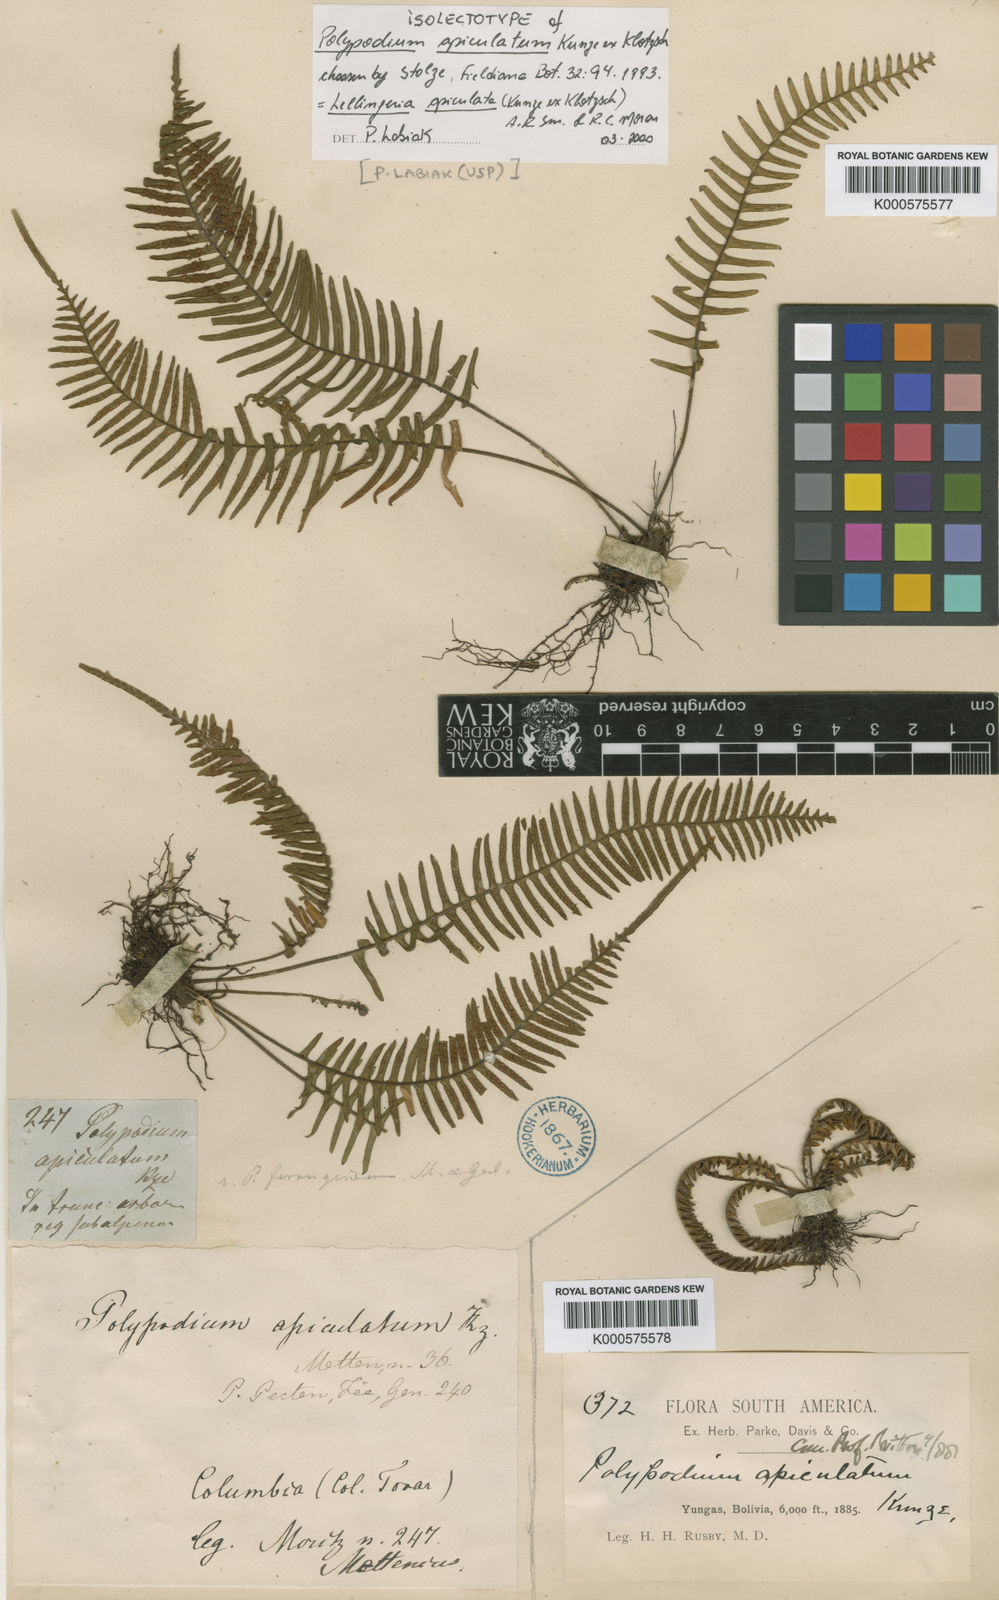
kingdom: Plantae
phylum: Tracheophyta
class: Polypodiopsida
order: Polypodiales
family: Polypodiaceae
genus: Lellingeria
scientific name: Lellingeria apiculata
